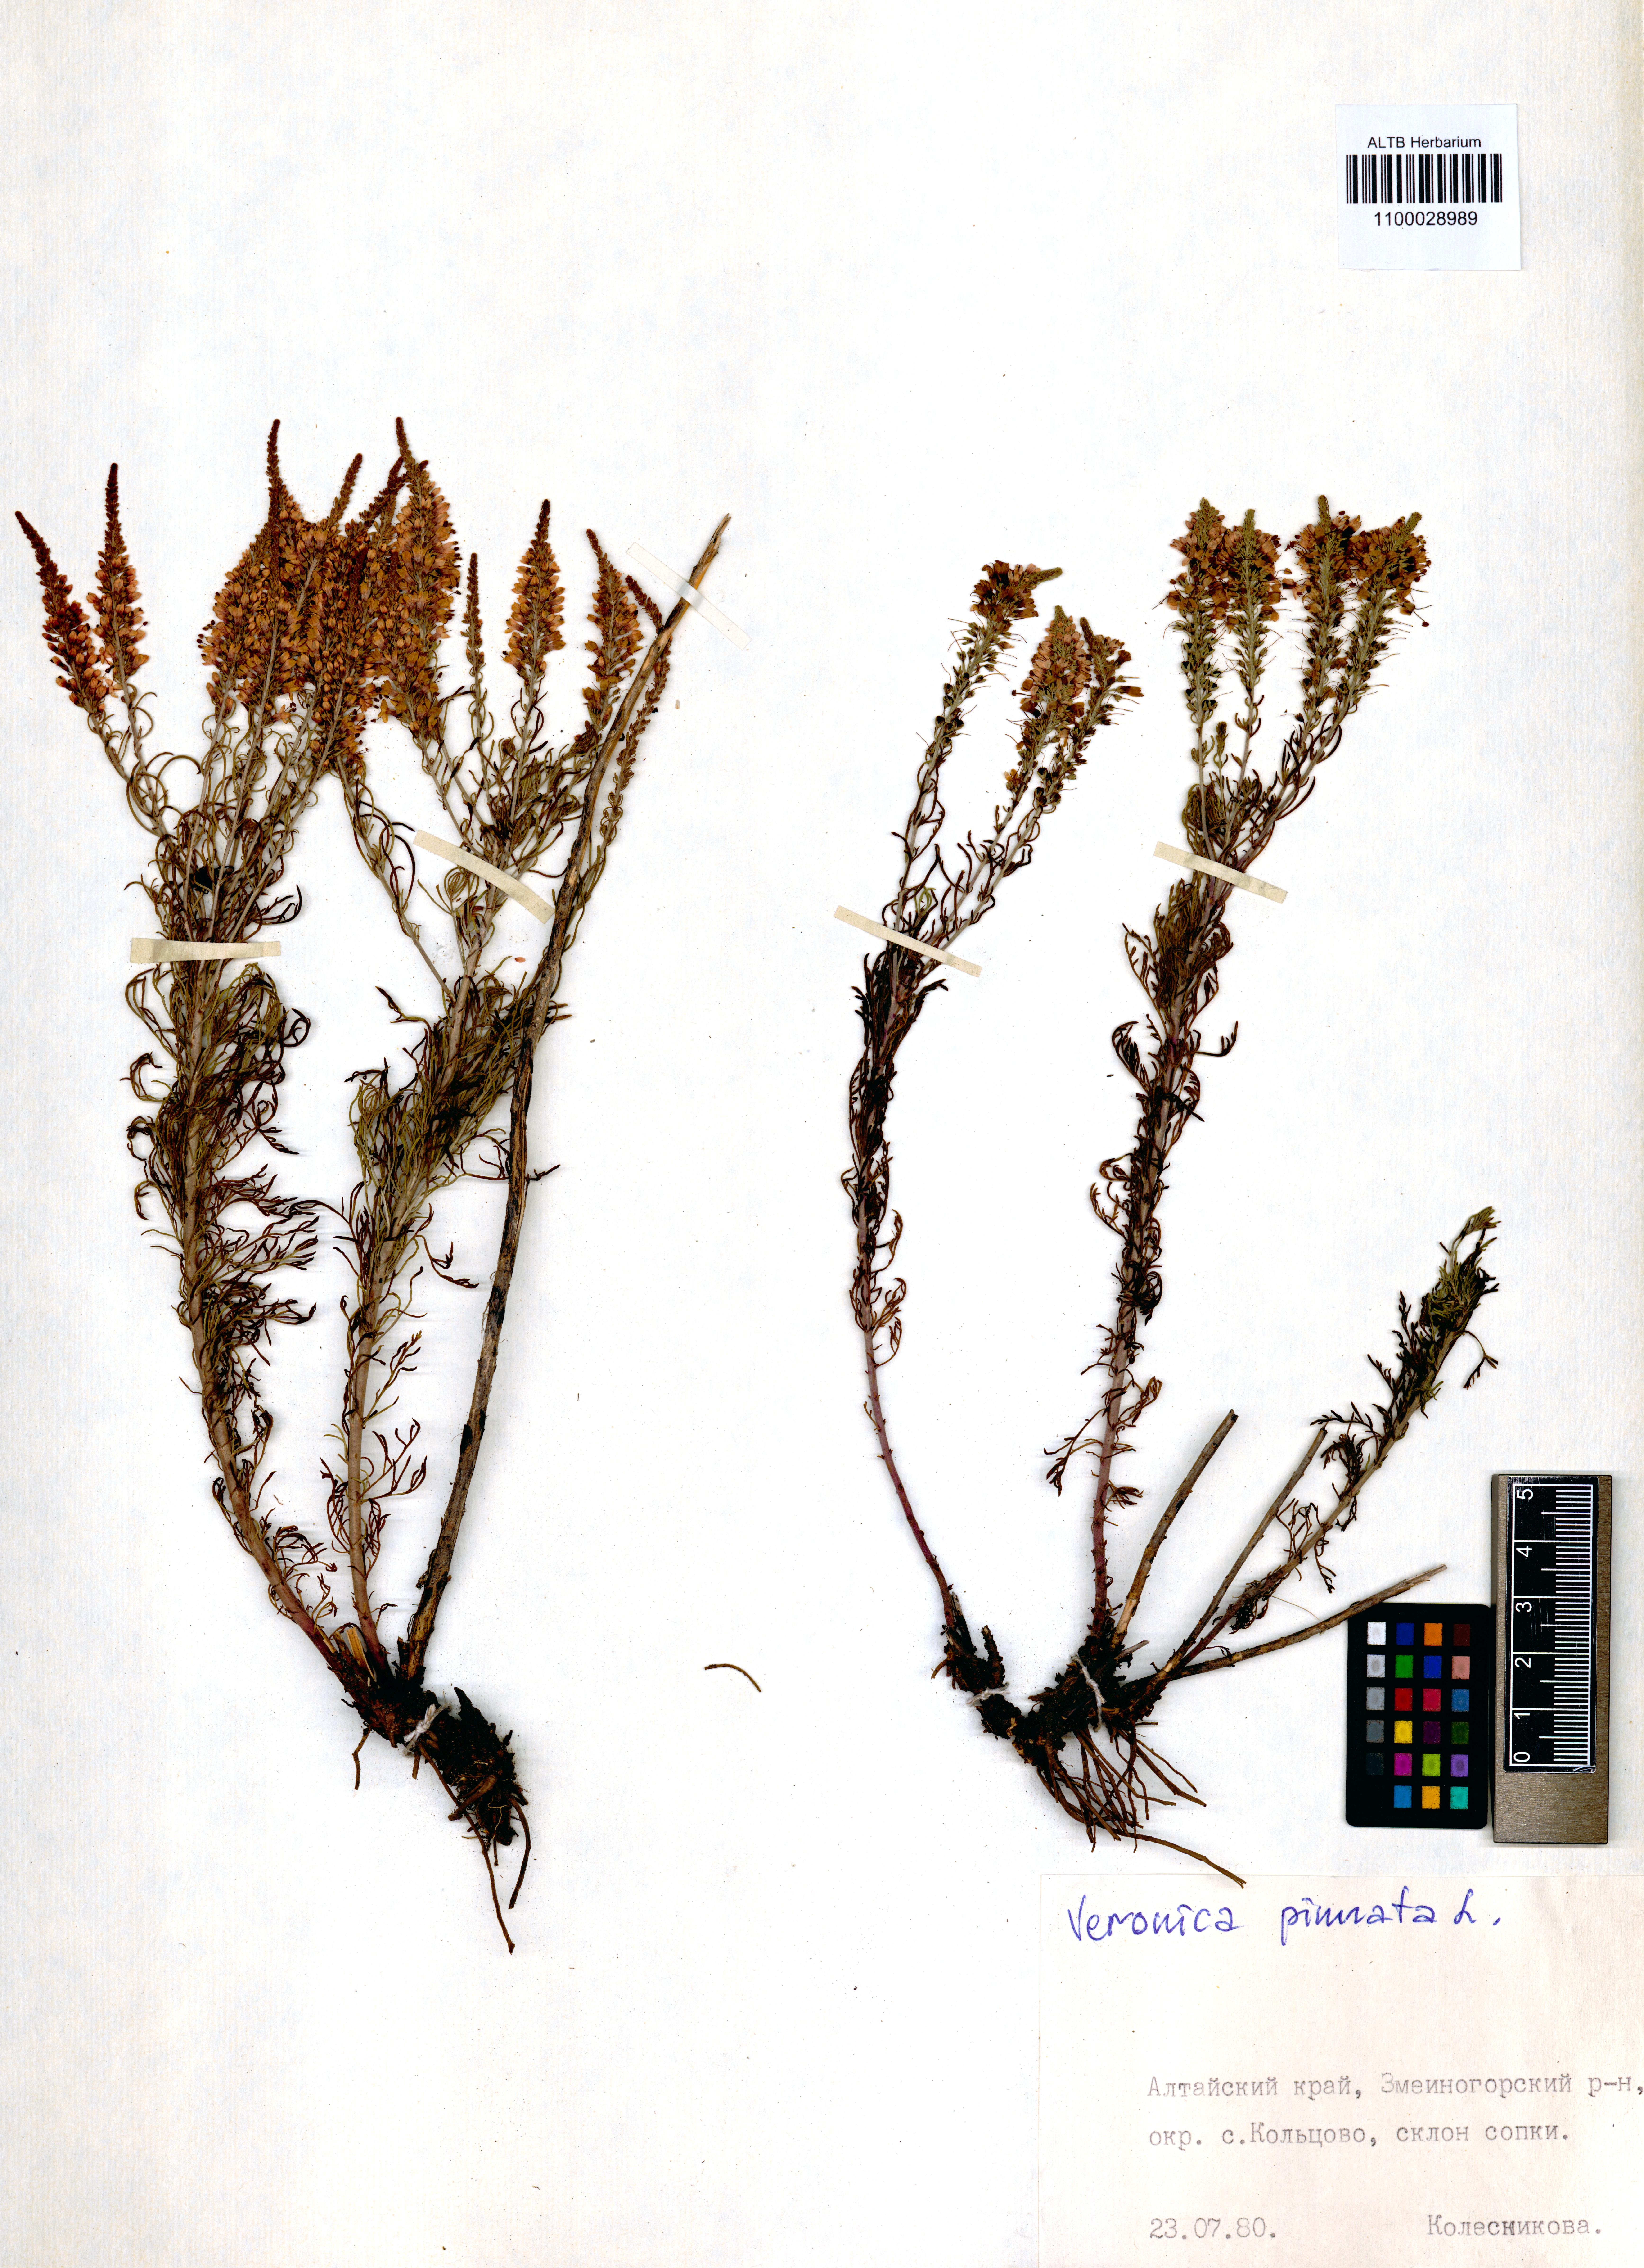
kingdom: Plantae
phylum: Tracheophyta
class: Magnoliopsida
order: Lamiales
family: Plantaginaceae
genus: Veronica
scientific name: Veronica pinnata
